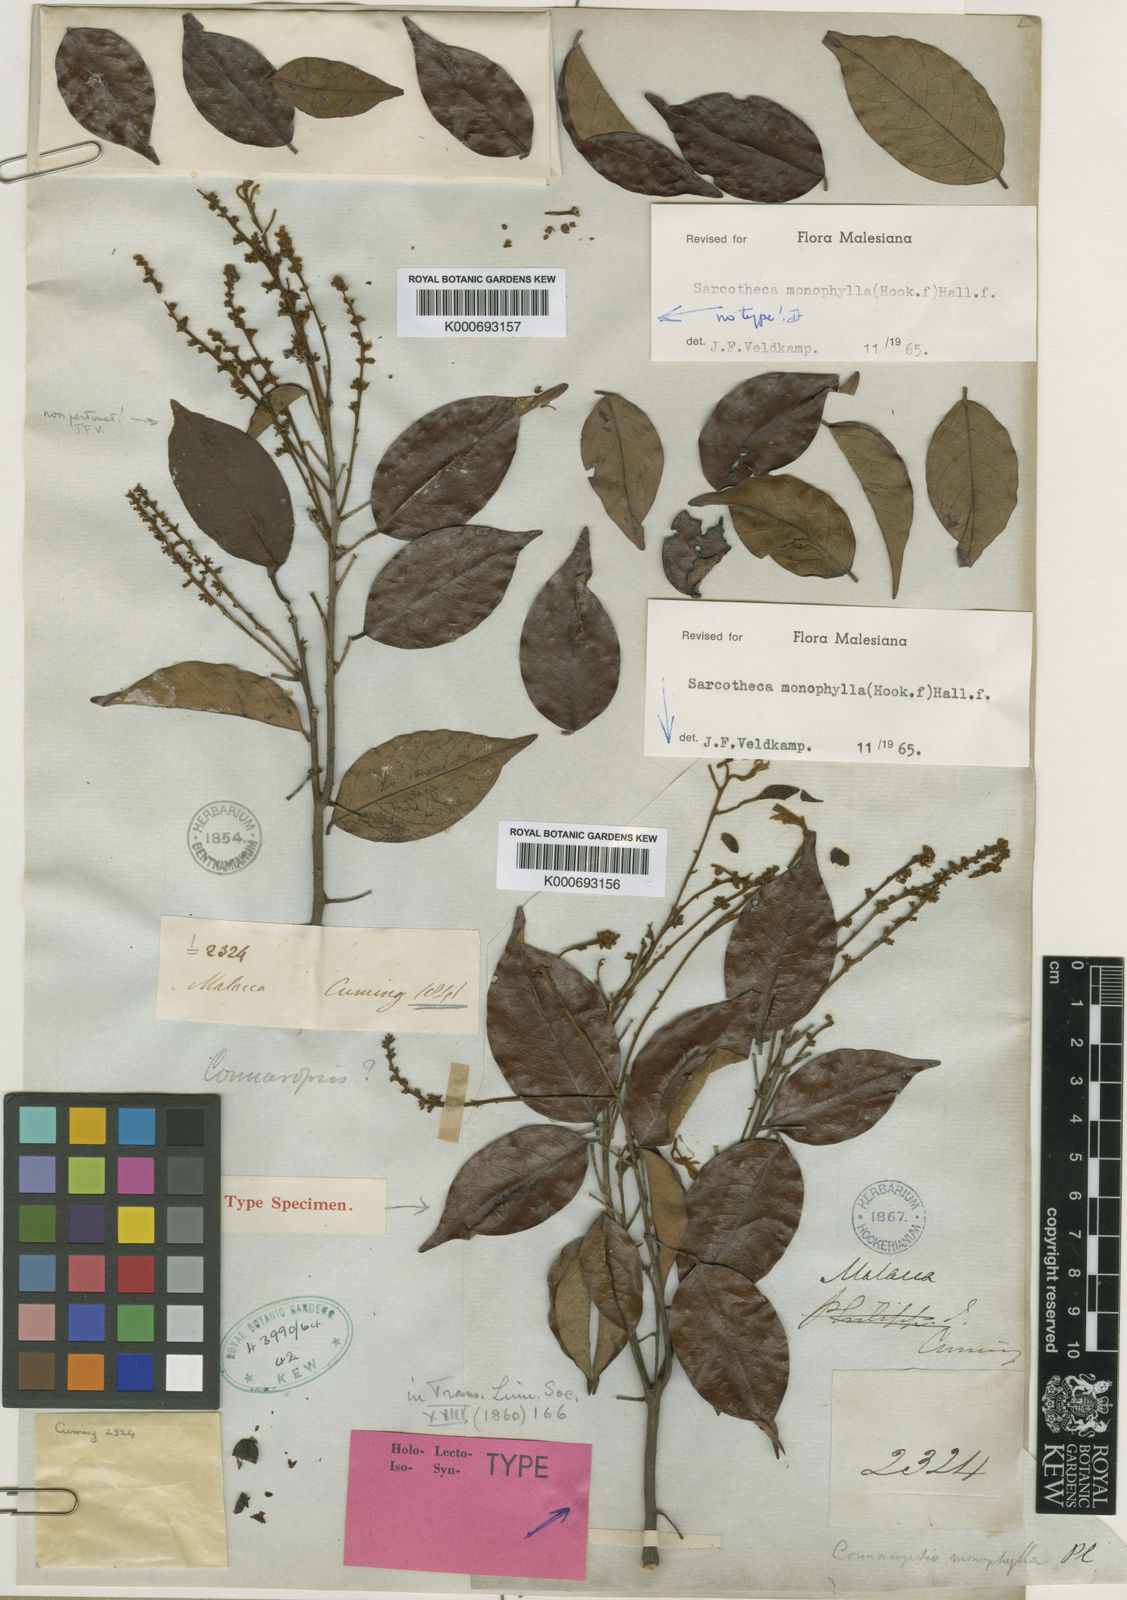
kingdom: Plantae
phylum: Tracheophyta
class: Magnoliopsida
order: Oxalidales
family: Oxalidaceae
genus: Sarcotheca
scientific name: Sarcotheca monophylla
